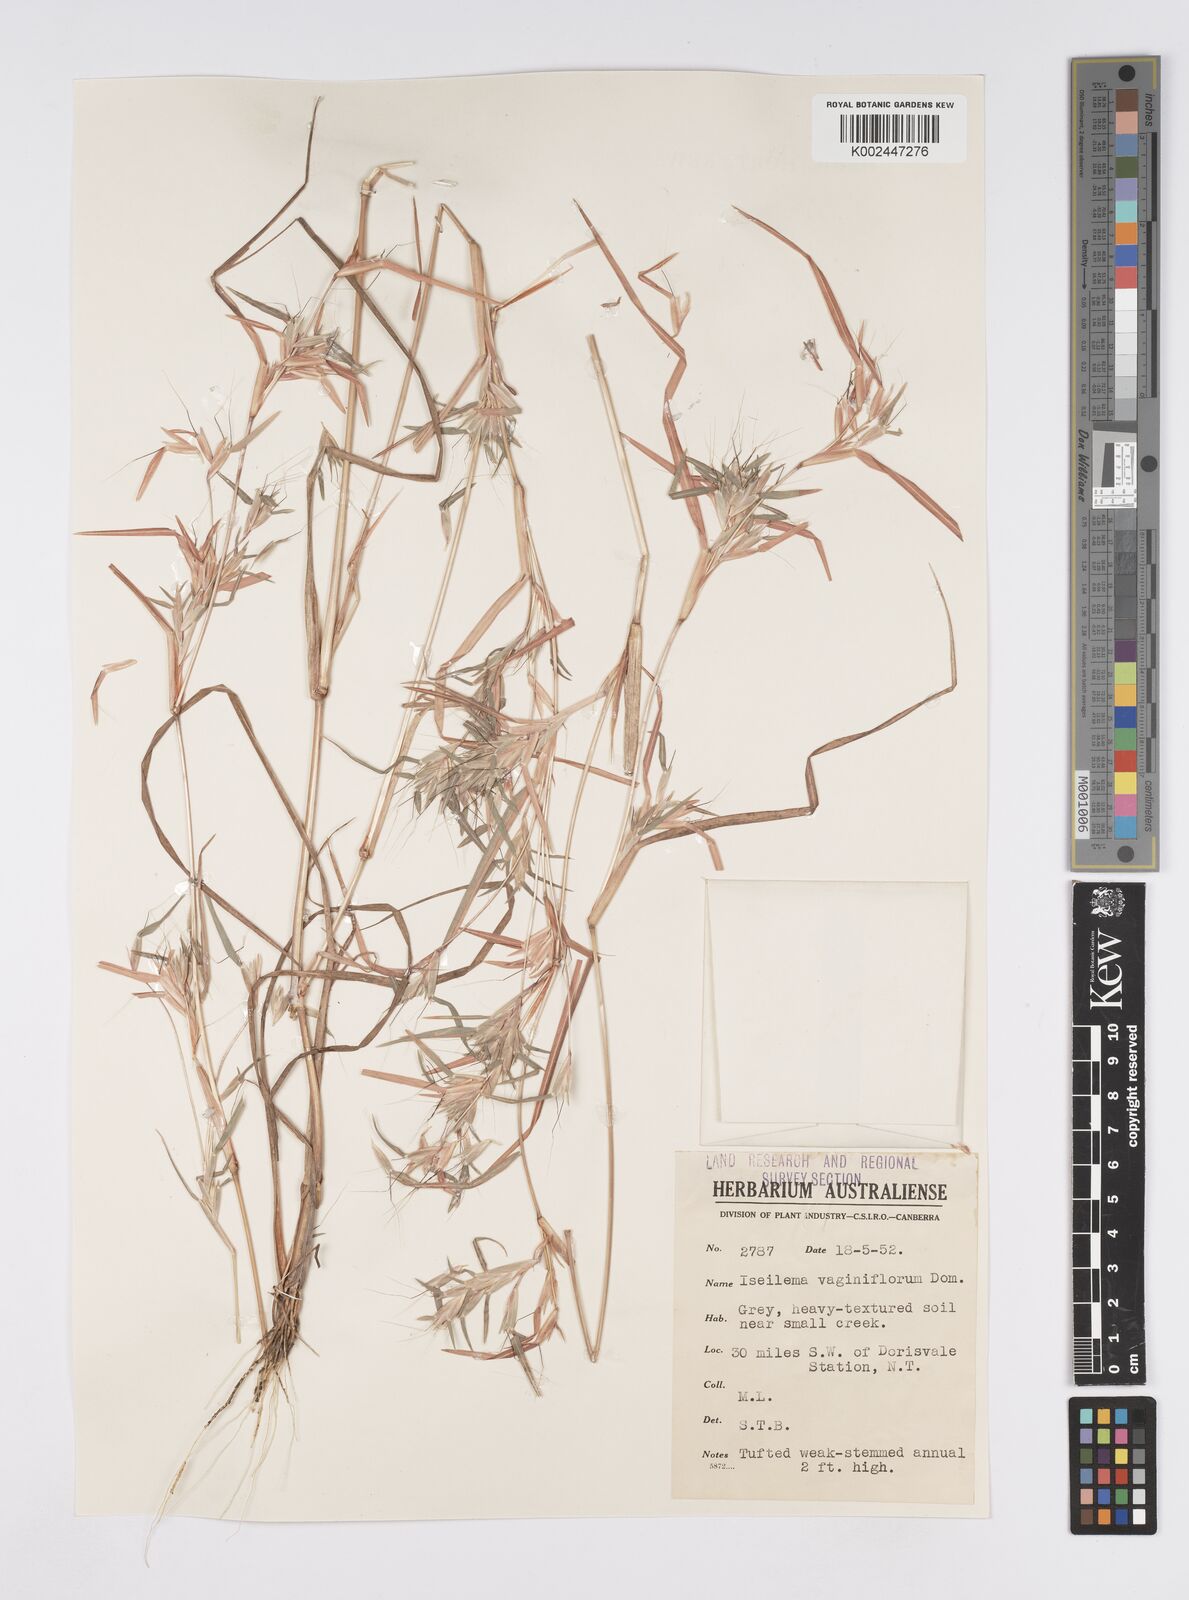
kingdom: Plantae
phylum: Tracheophyta
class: Liliopsida
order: Poales
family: Poaceae
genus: Iseilema
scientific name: Iseilema vaginiflorum
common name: Red flinders grass
